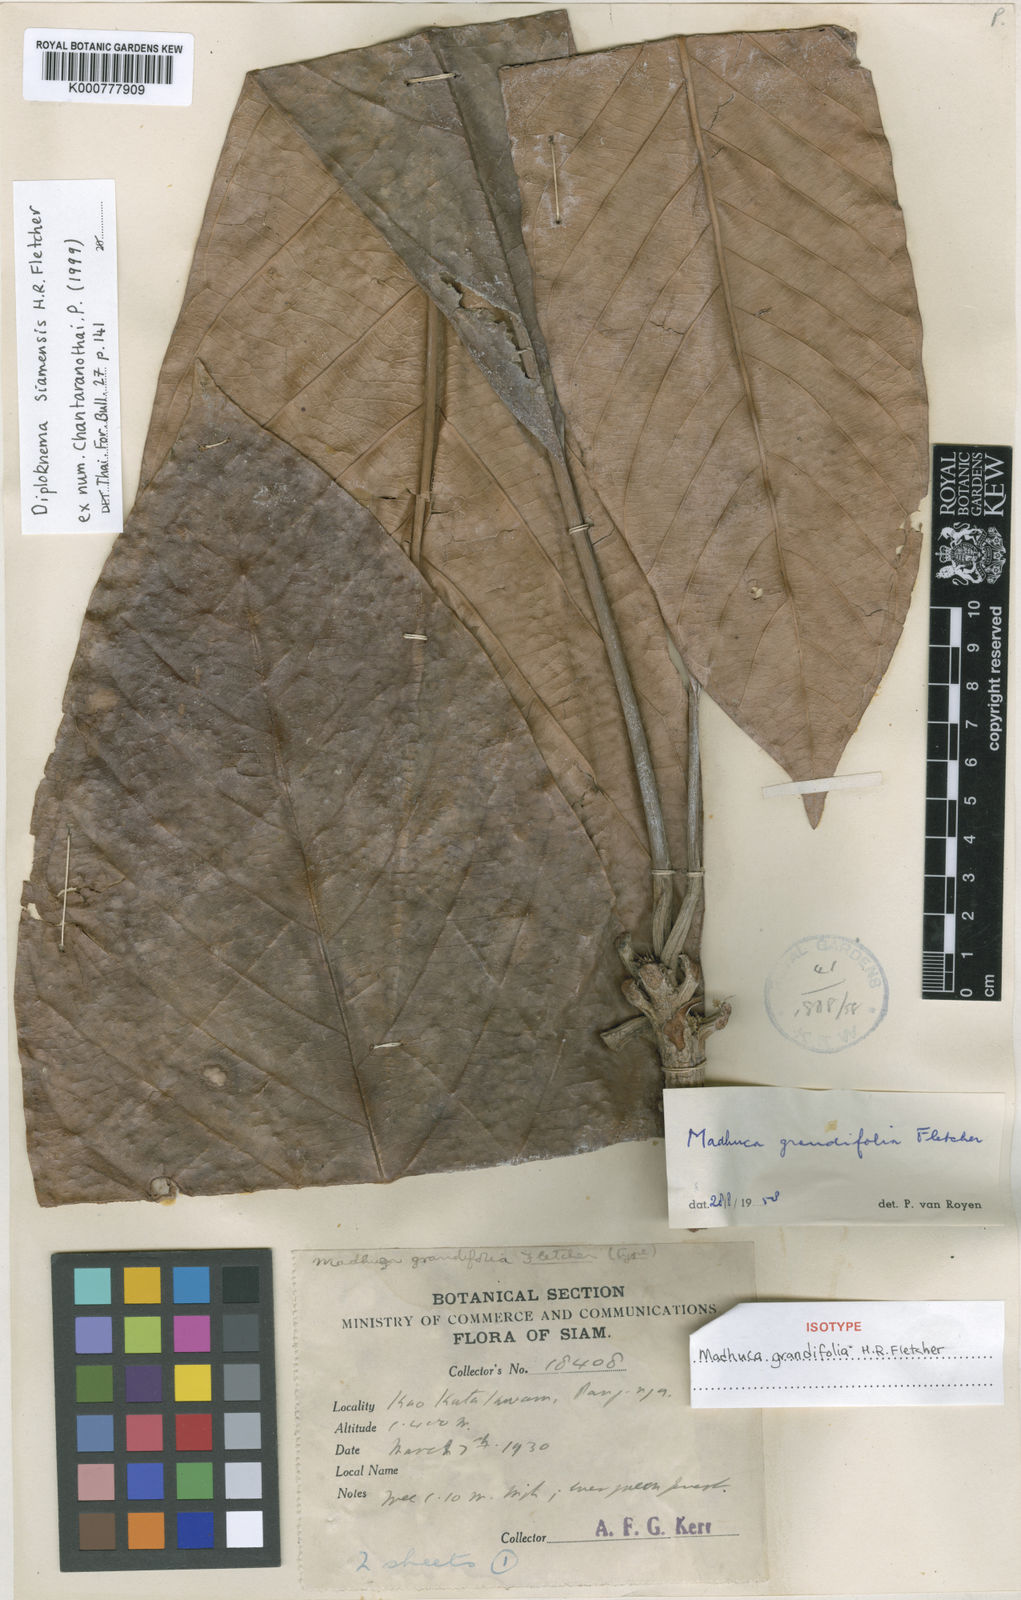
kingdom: Plantae
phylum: Tracheophyta
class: Magnoliopsida
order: Ericales
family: Sapotaceae
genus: Diploknema
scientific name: Diploknema siamensis
